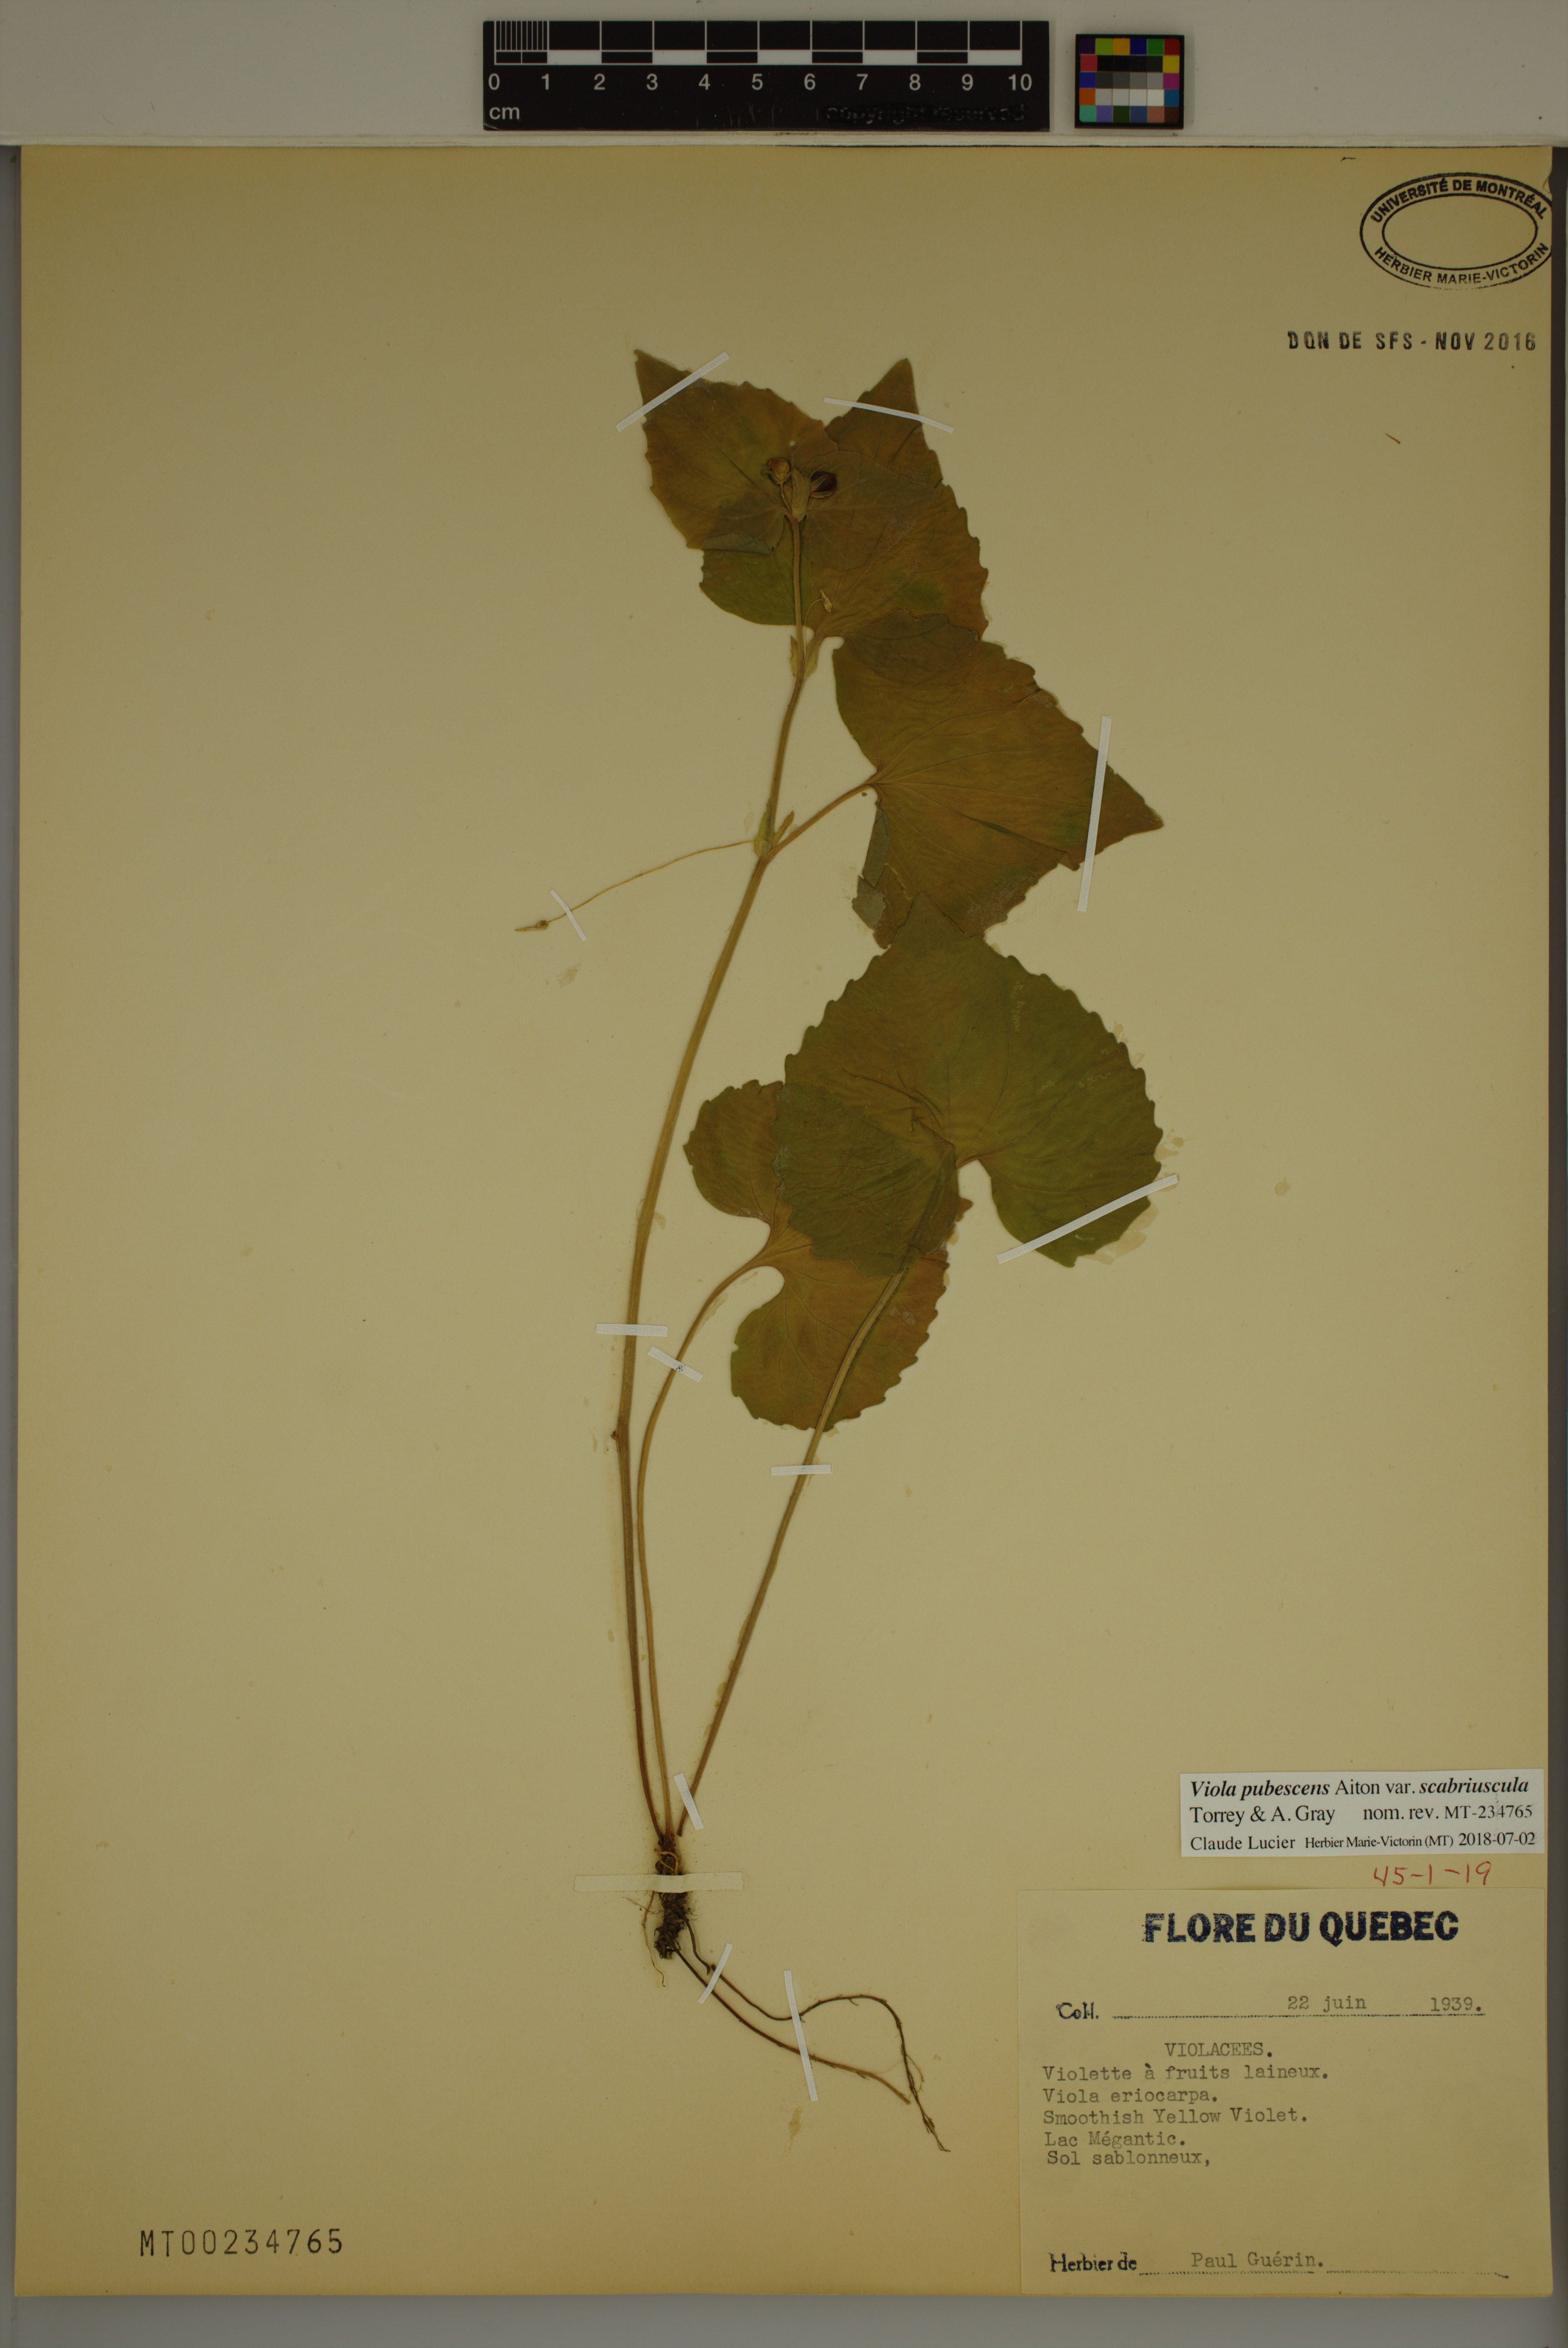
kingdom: Plantae
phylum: Tracheophyta
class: Magnoliopsida
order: Malpighiales
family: Violaceae
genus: Viola
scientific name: Viola eriocarpa
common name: Smooth yellow violet
